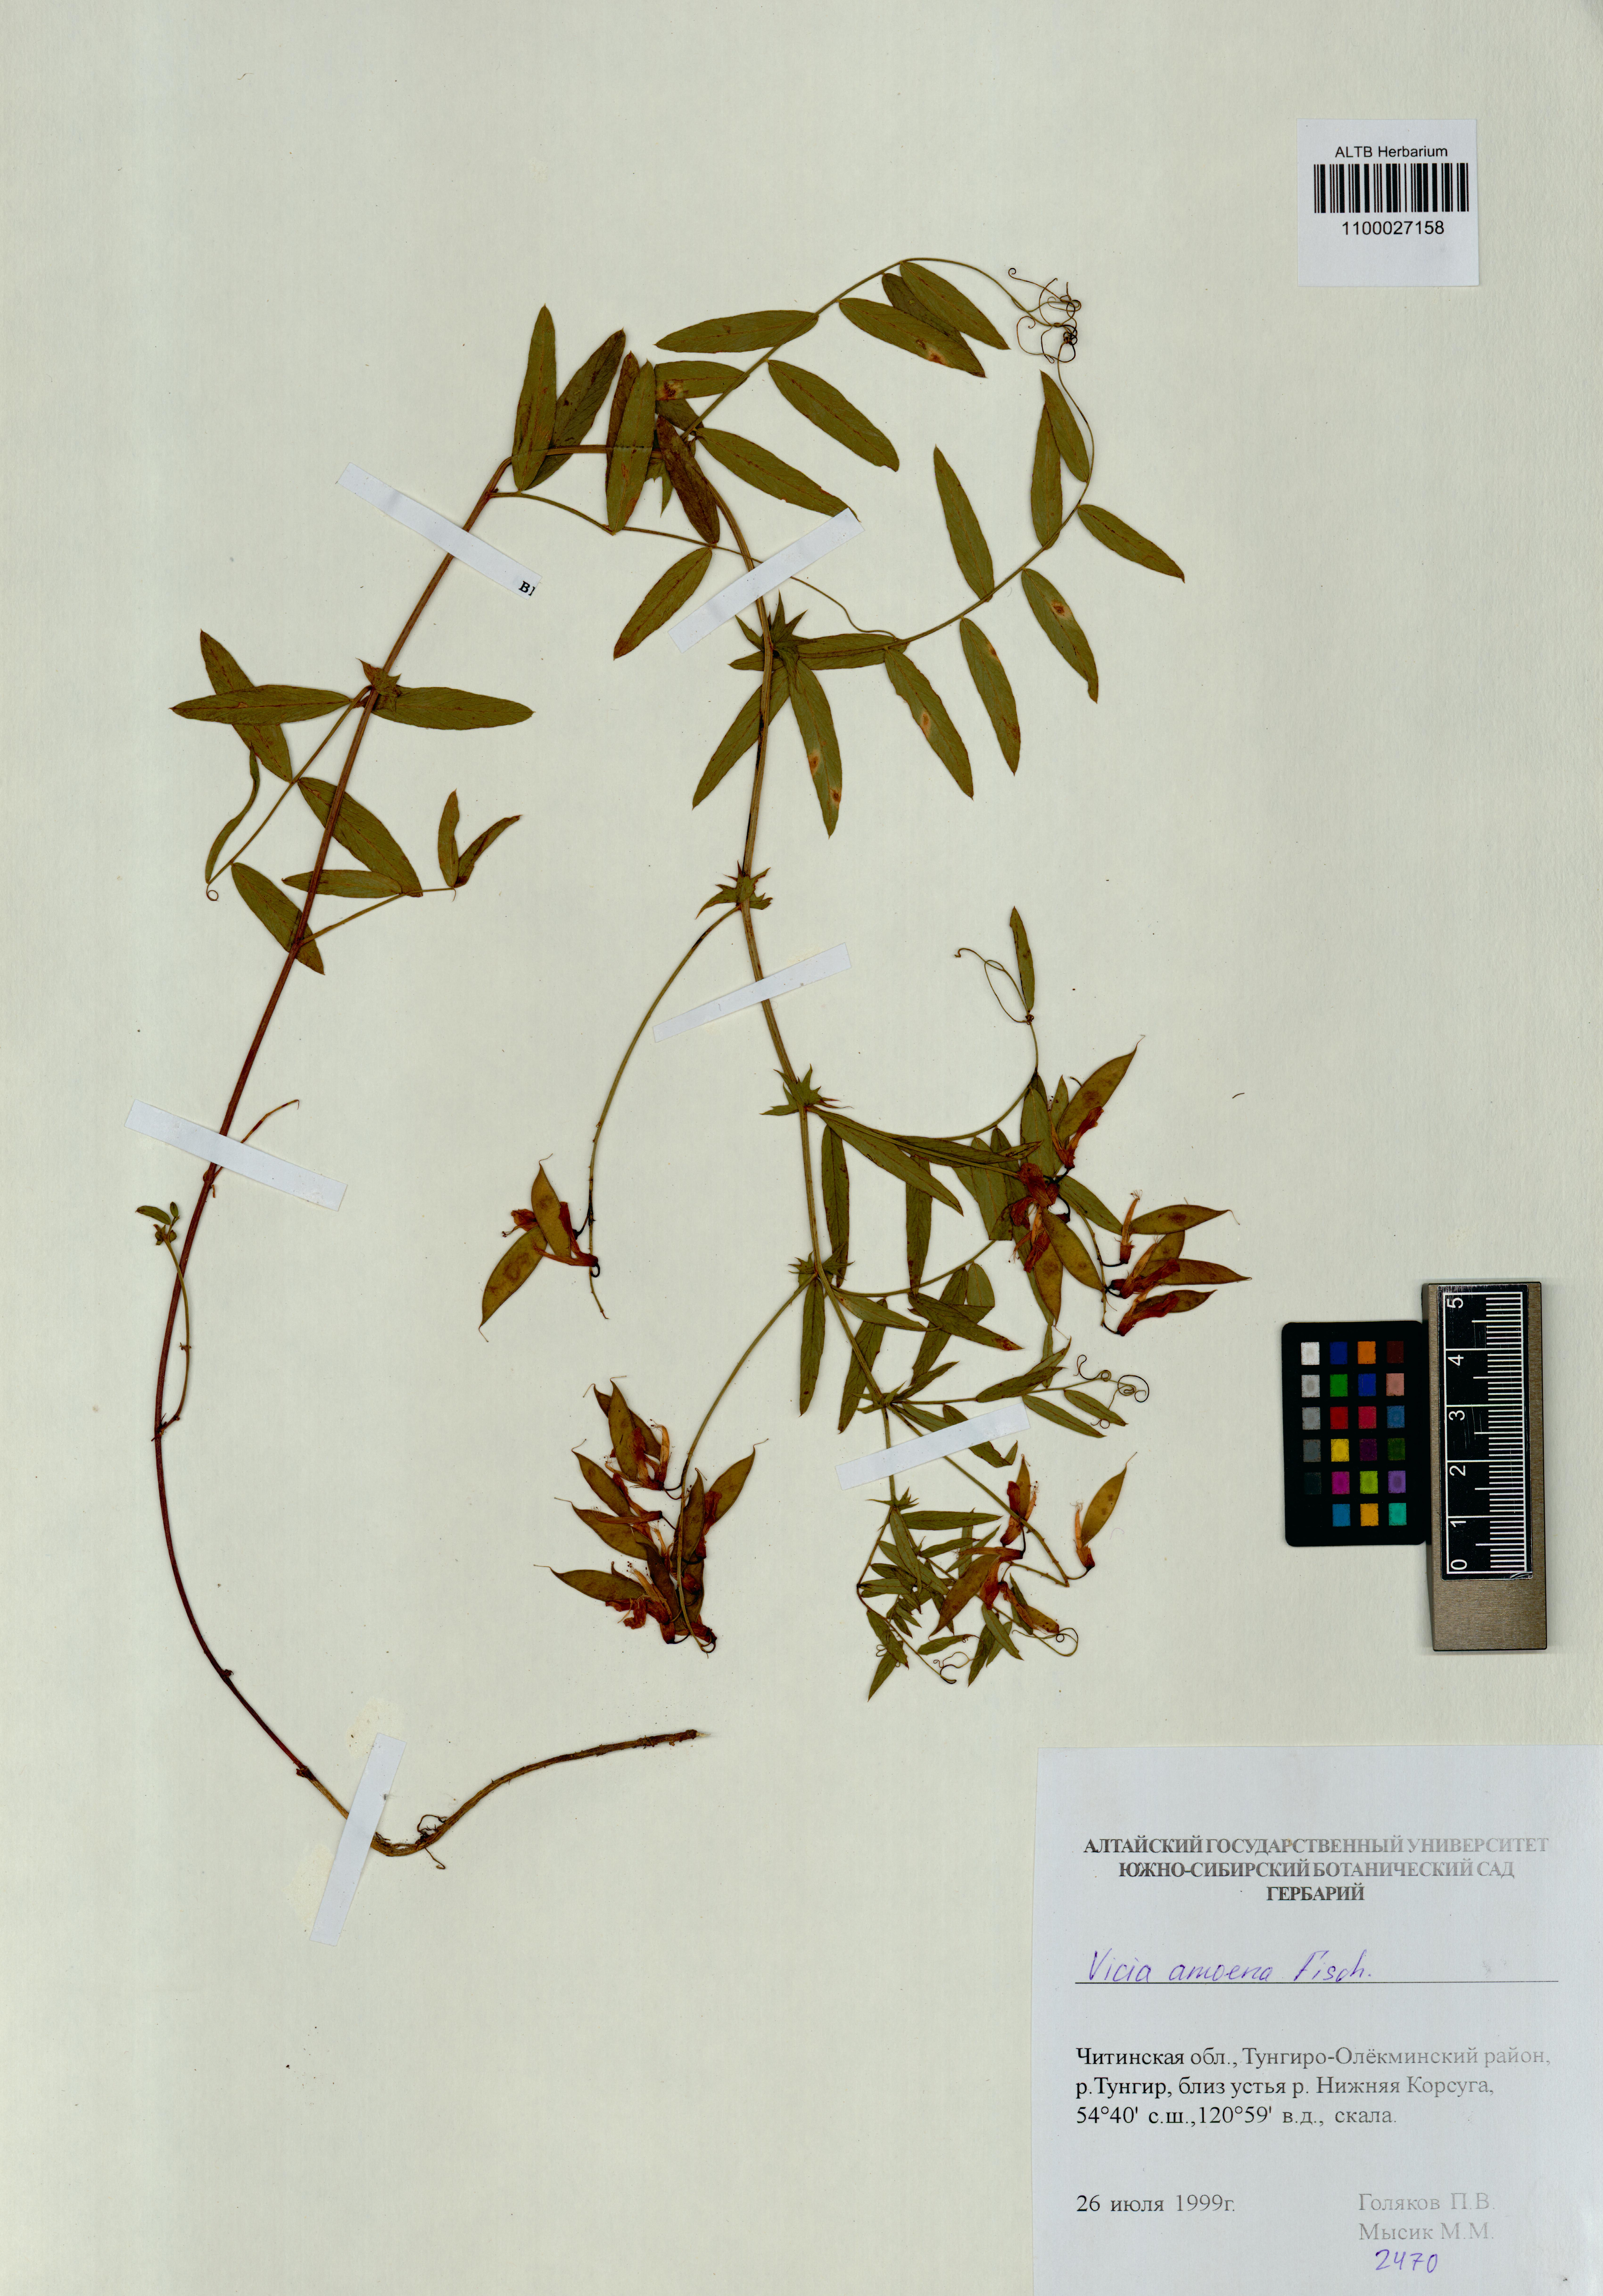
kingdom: Plantae
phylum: Tracheophyta
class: Magnoliopsida
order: Fabales
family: Fabaceae
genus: Vicia
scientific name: Vicia amoena
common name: Cheder ebs
